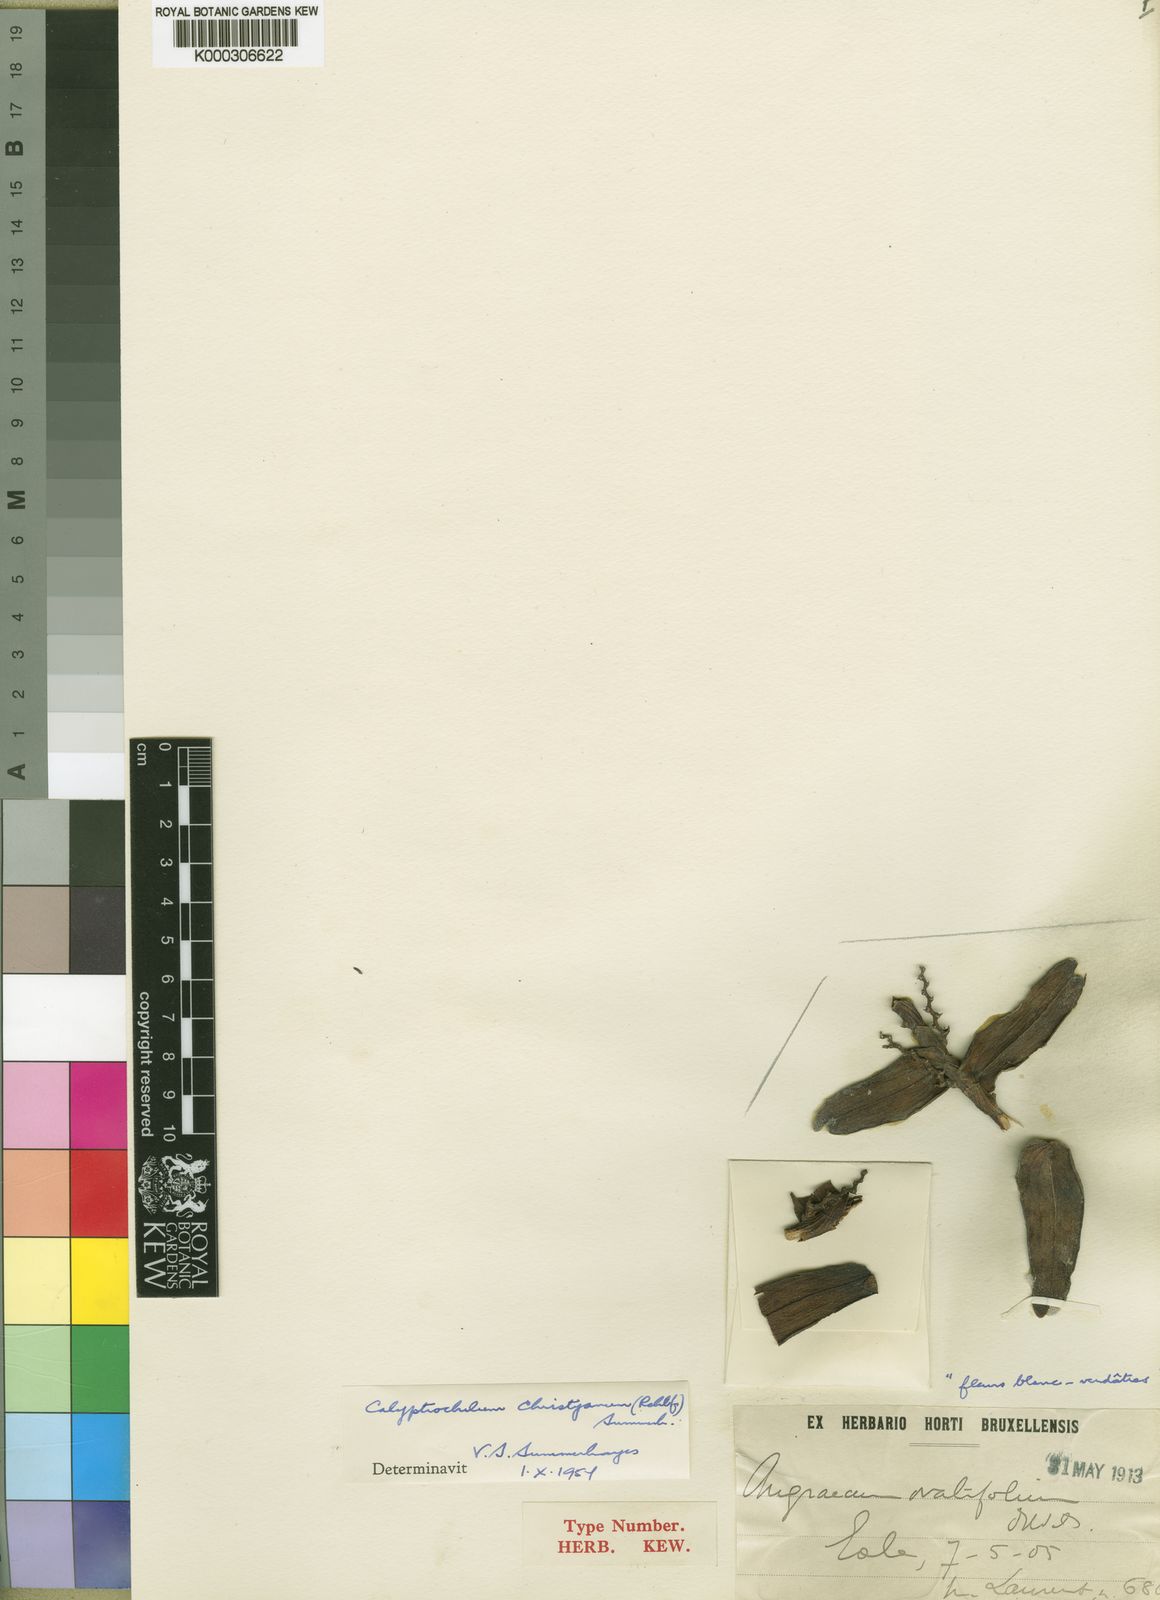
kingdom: Plantae
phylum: Tracheophyta
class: Liliopsida
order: Asparagales
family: Orchidaceae
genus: Calyptrochilum
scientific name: Calyptrochilum christyanum
